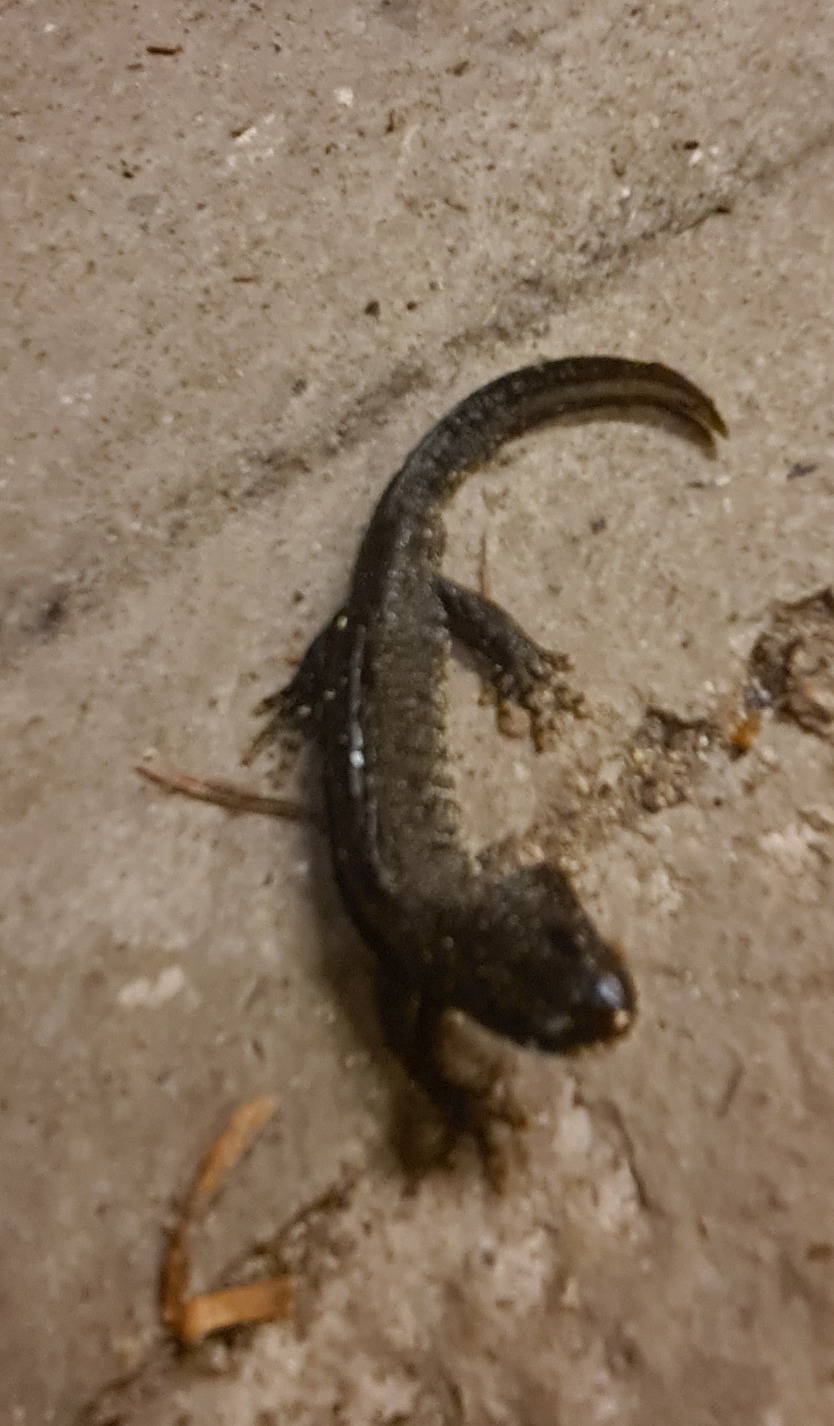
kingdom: Animalia
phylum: Chordata
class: Amphibia
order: Caudata
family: Salamandridae
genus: Triturus
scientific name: Triturus cristatus
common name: Stor vandsalamander
